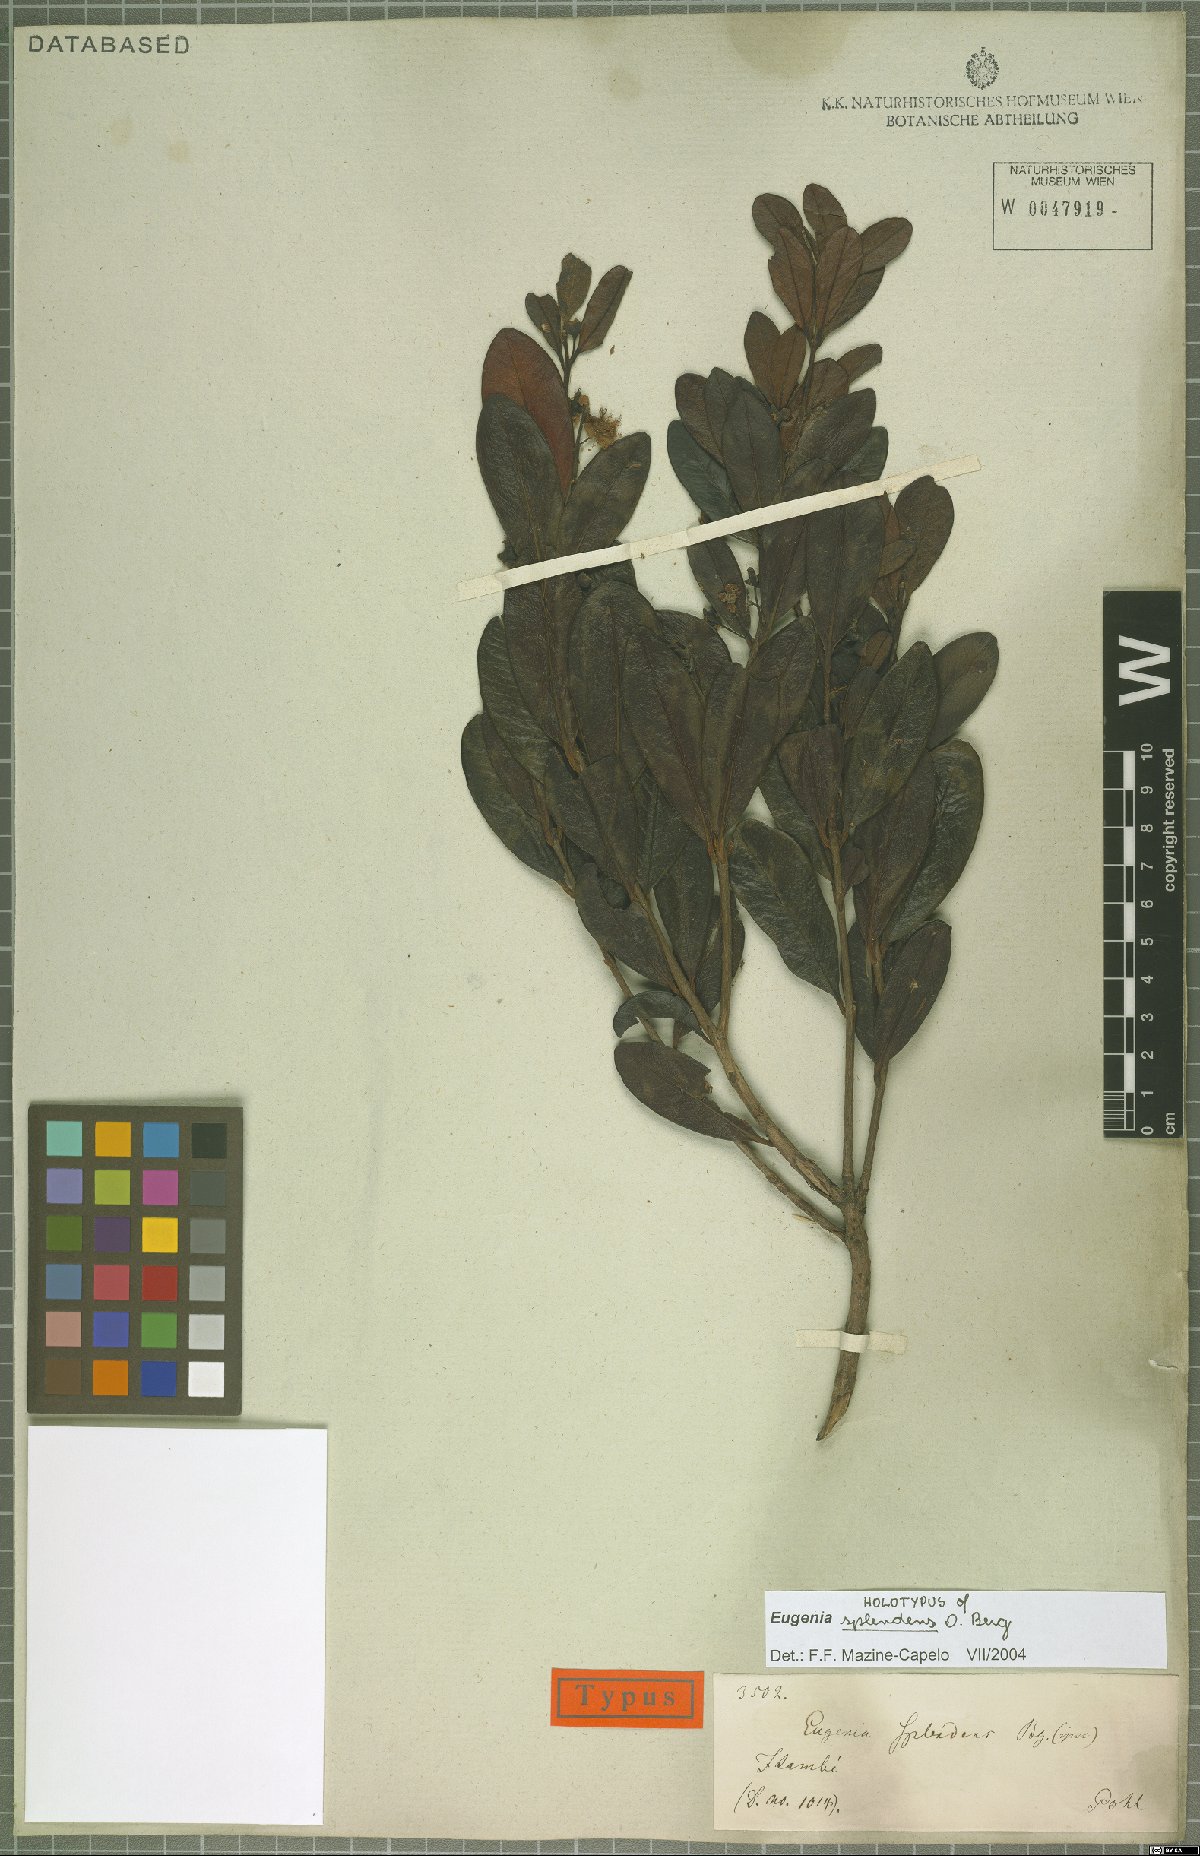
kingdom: Plantae
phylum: Tracheophyta
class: Magnoliopsida
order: Myrtales
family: Myrtaceae
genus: Eugenia
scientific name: Eugenia splendens
